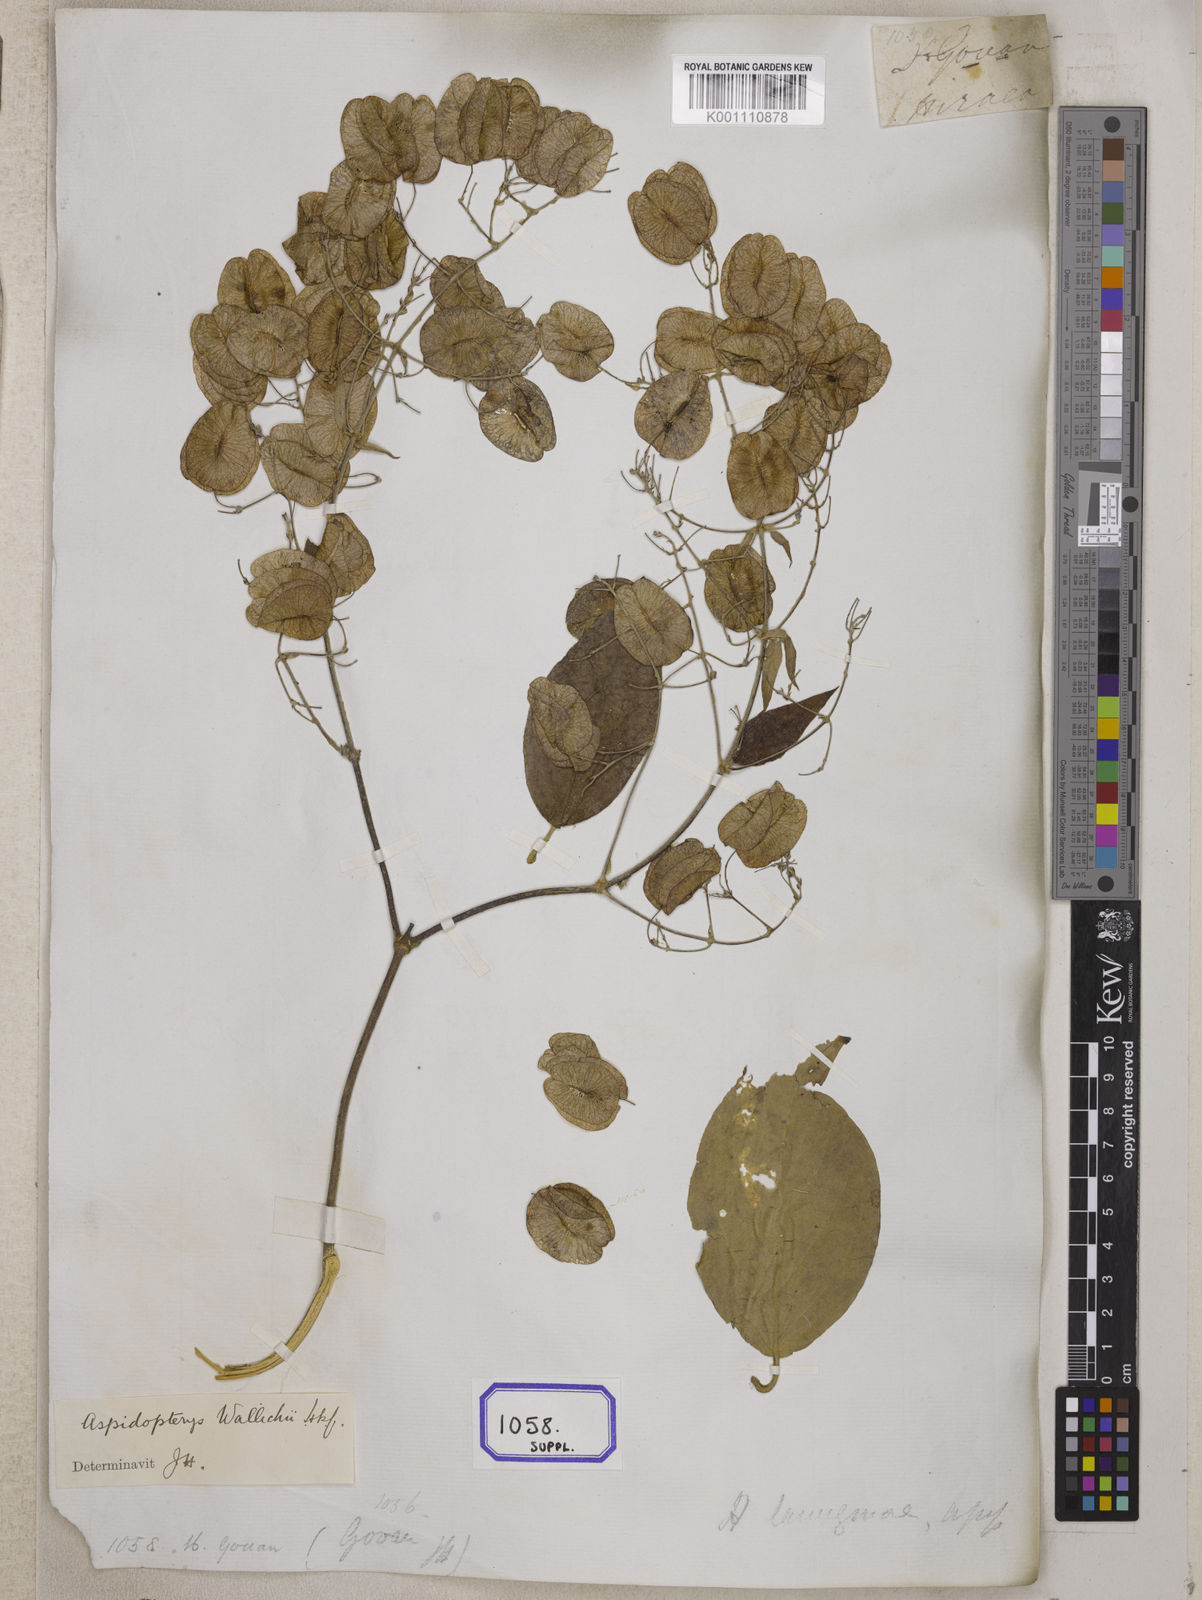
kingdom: Plantae
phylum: Tracheophyta
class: Magnoliopsida
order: Malpighiales
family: Malpighiaceae
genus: Aspidopterys
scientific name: Aspidopterys nutans
